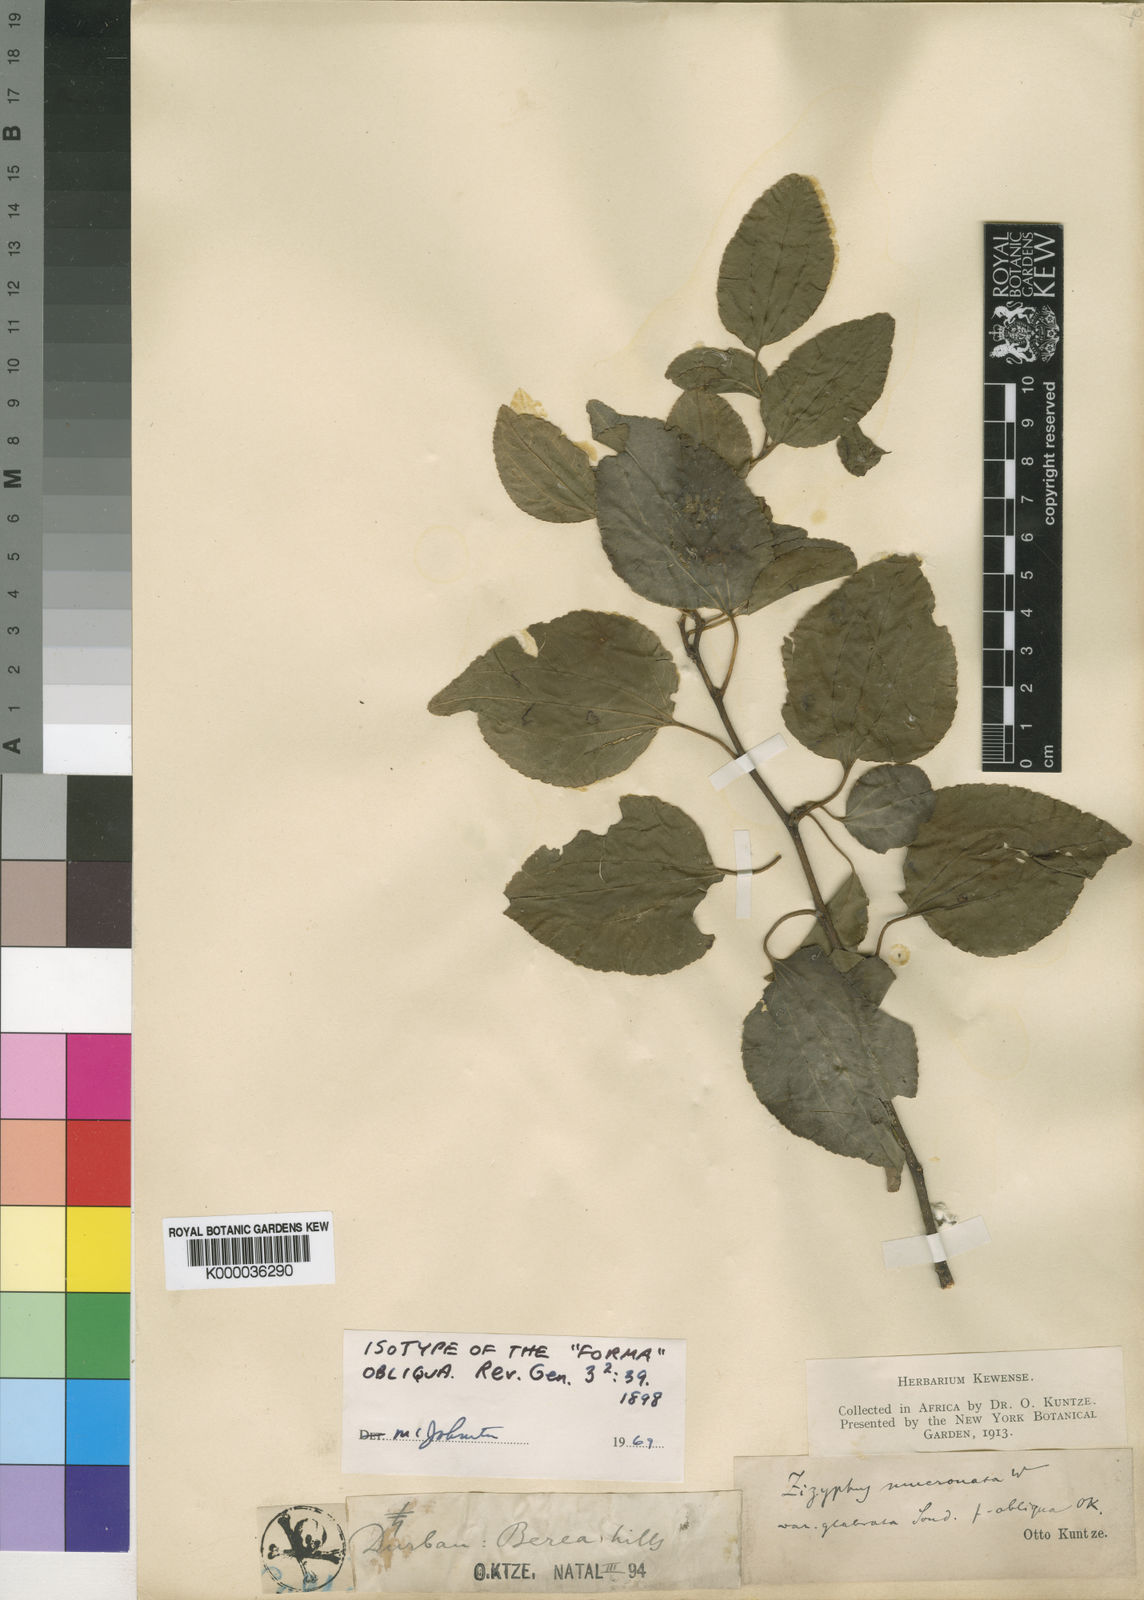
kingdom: Plantae
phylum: Tracheophyta
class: Magnoliopsida
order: Rosales
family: Rhamnaceae
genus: Ziziphus
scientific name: Ziziphus mucronata
